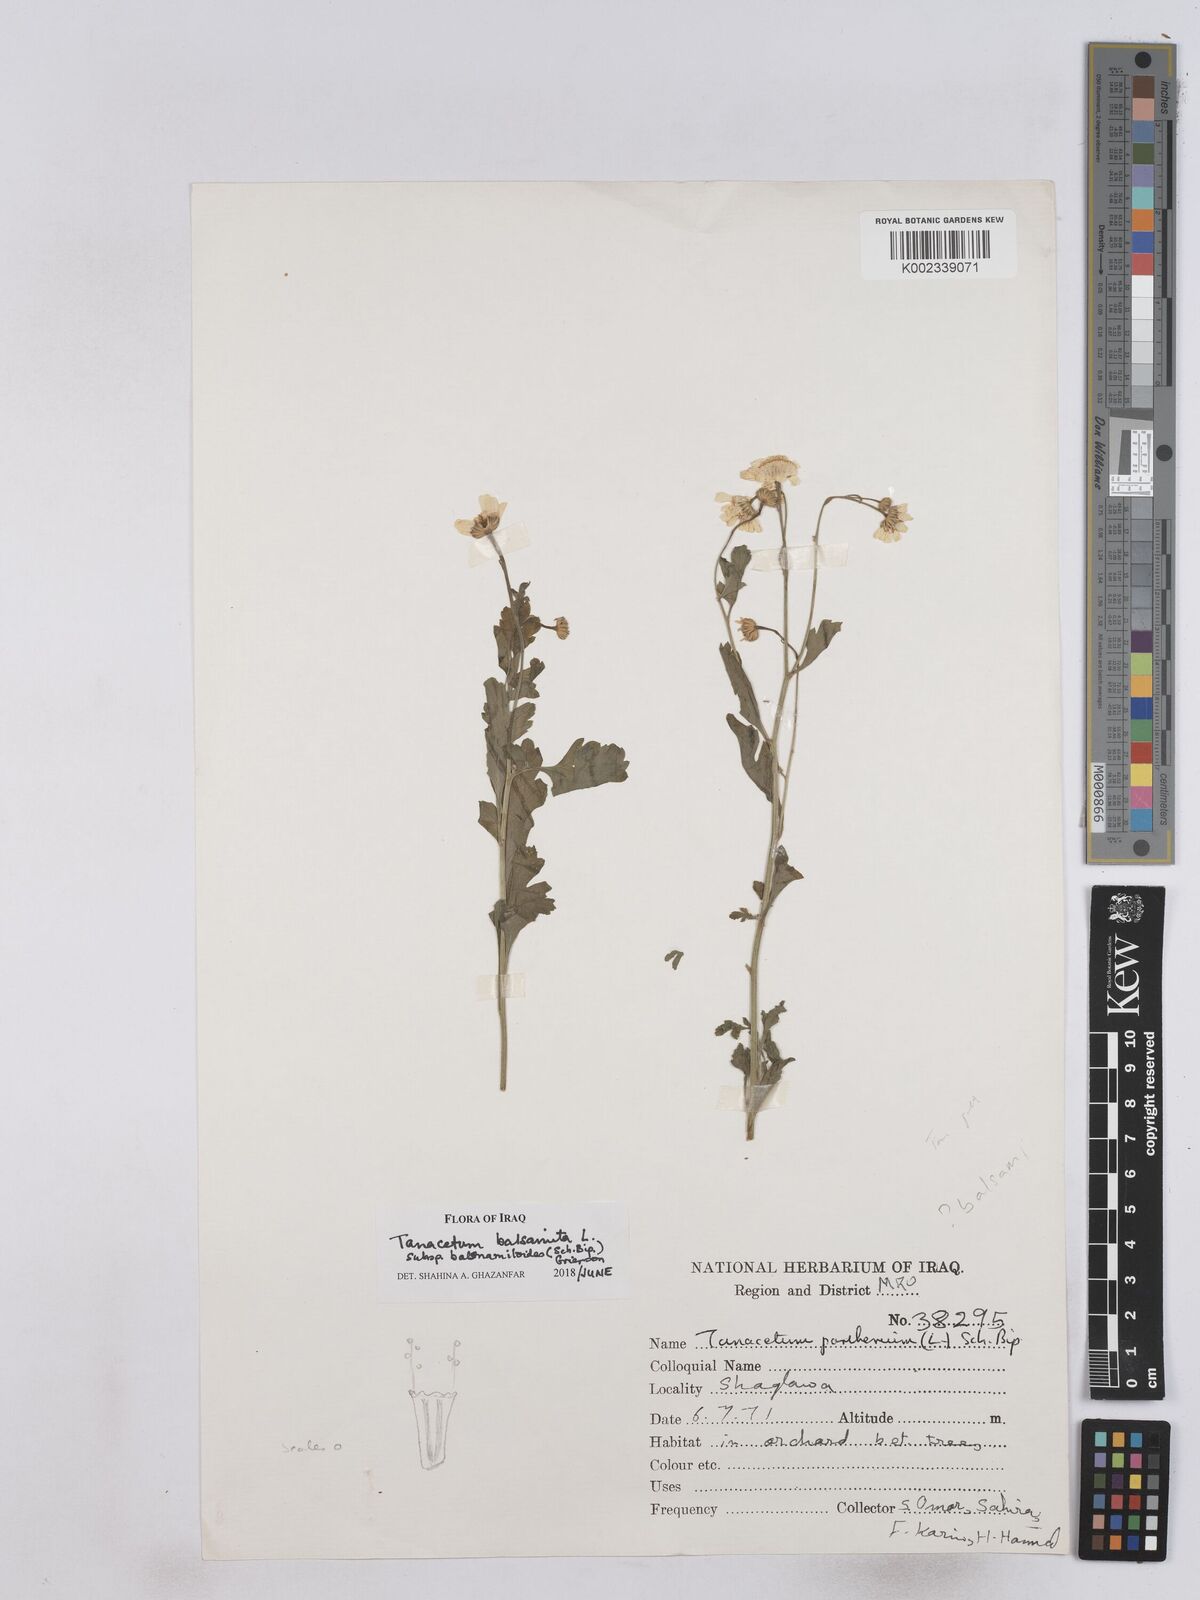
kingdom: Plantae
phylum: Tracheophyta
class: Magnoliopsida
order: Asterales
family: Asteraceae
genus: Tanacetum
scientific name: Tanacetum parthenium
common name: Feverfew
